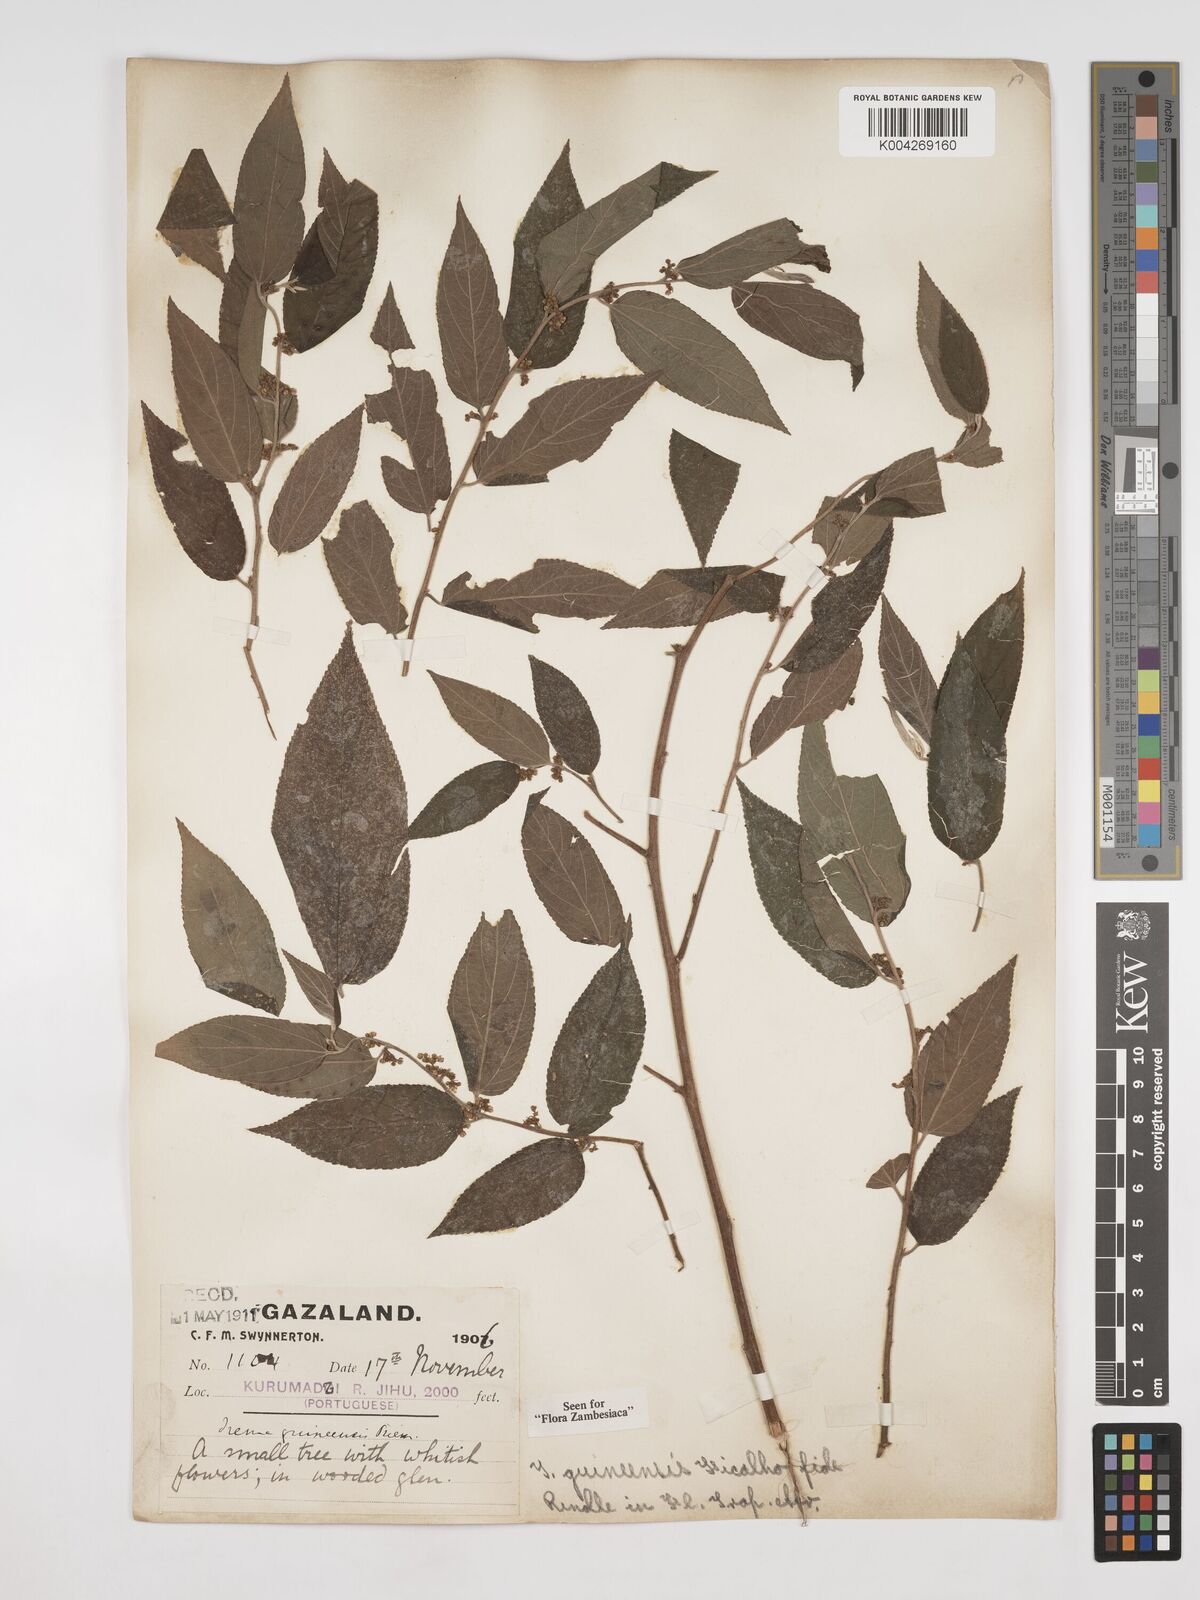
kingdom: Plantae
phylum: Tracheophyta
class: Magnoliopsida
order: Rosales
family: Cannabaceae
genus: Trema
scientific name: Trema orientale
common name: Indian charcoal tree
